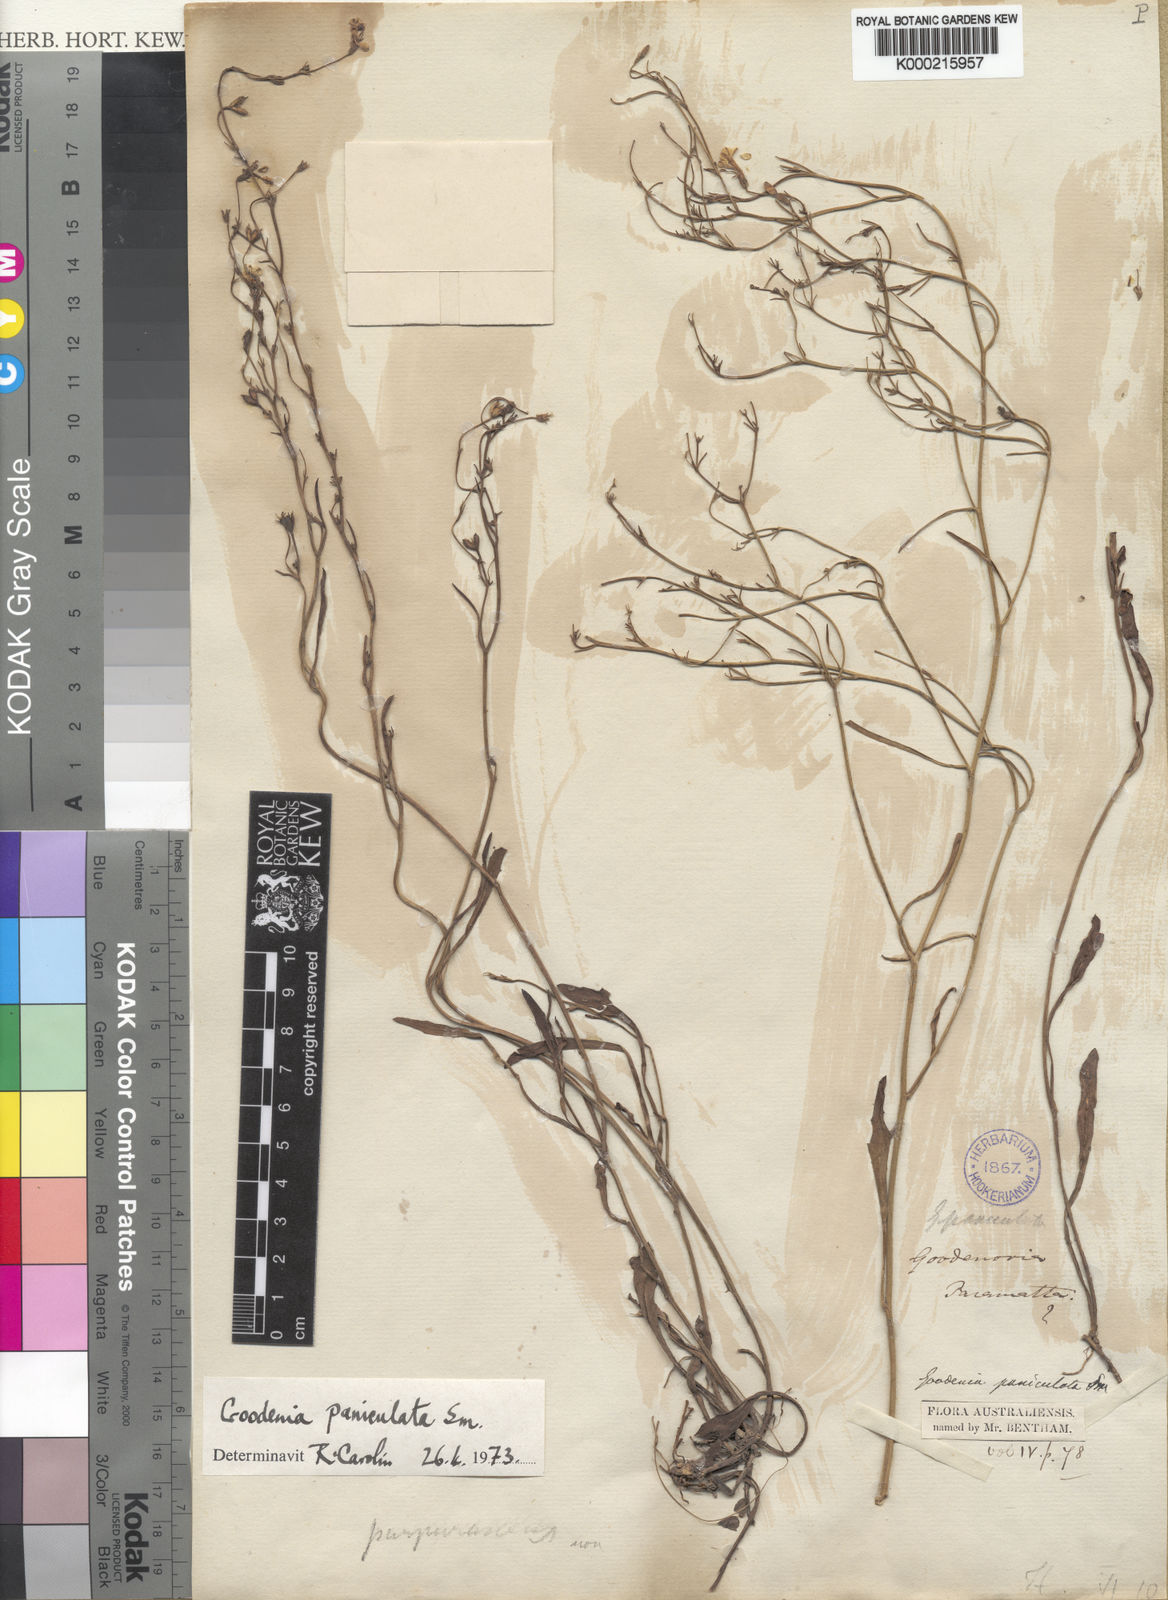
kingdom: Plantae
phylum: Tracheophyta
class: Magnoliopsida
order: Asterales
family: Goodeniaceae
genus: Goodenia
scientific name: Goodenia paniculata
